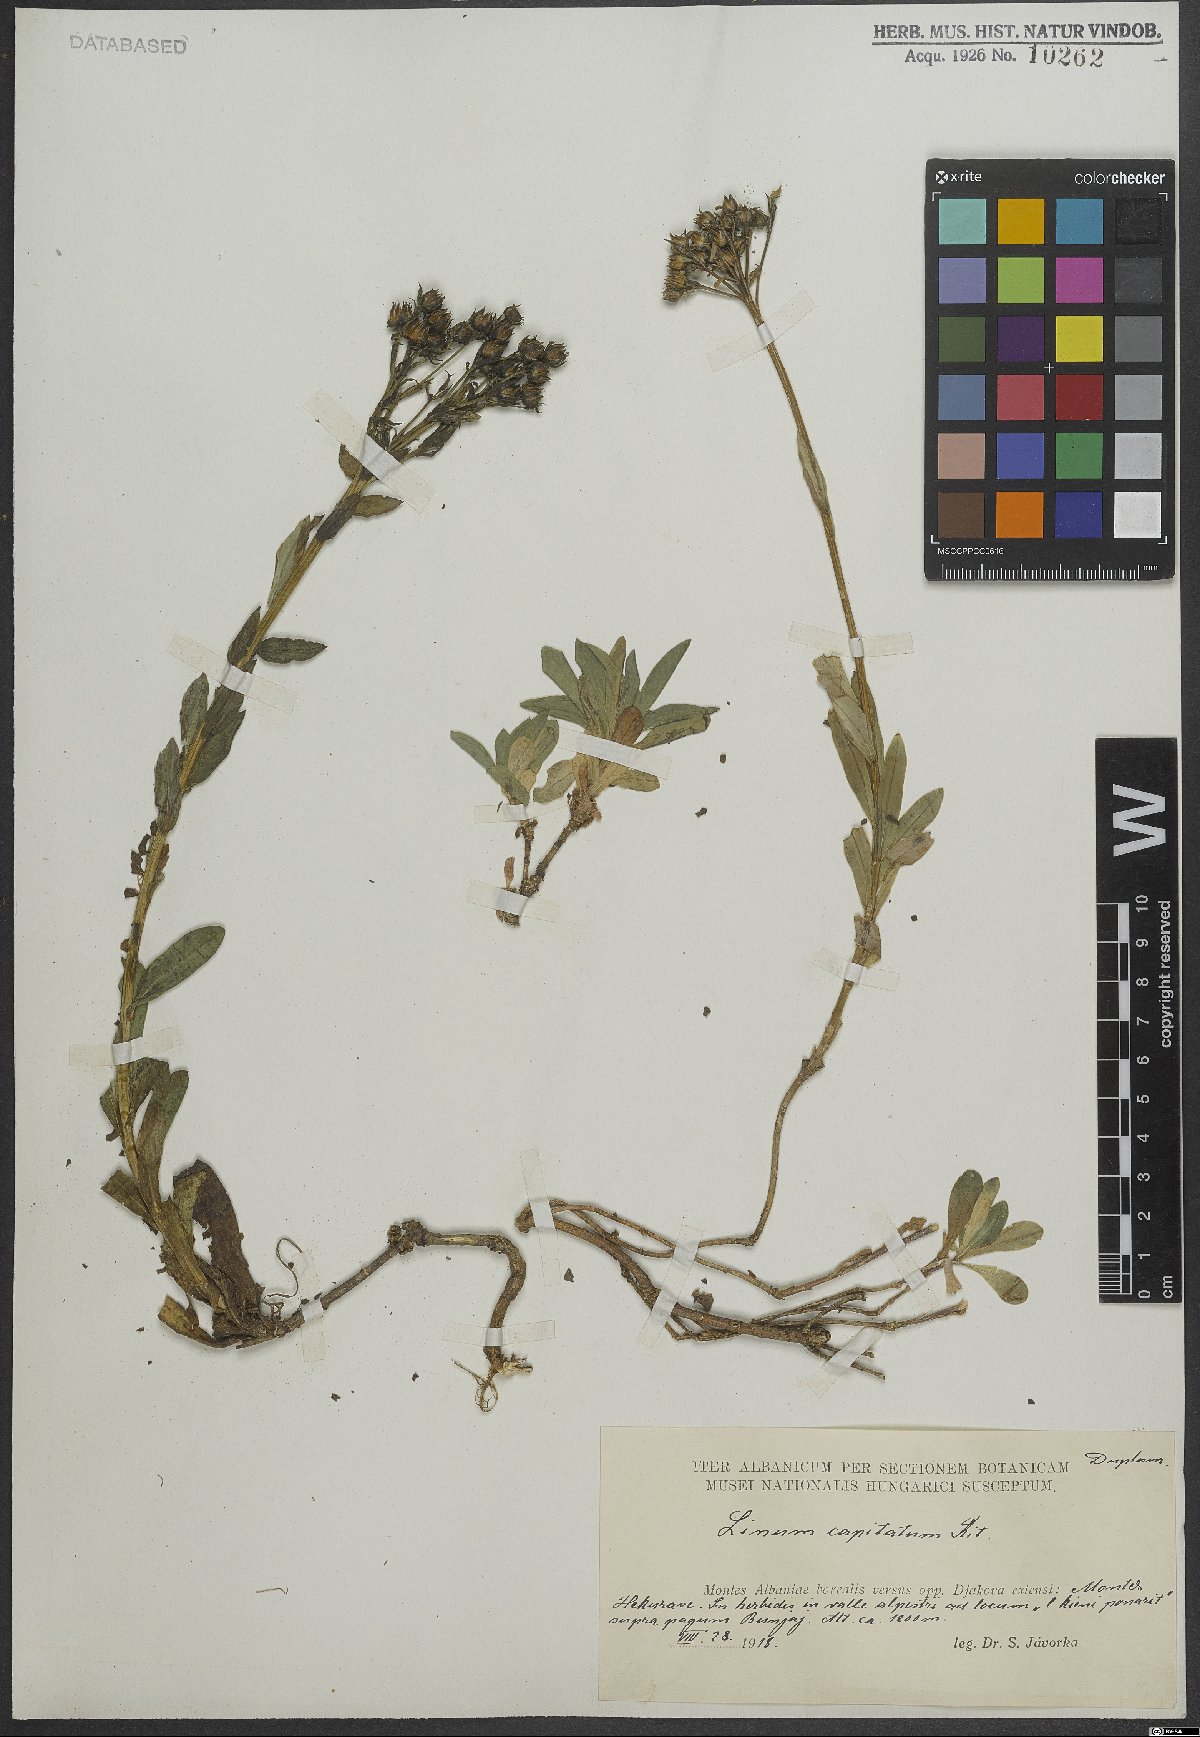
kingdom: Plantae
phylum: Tracheophyta
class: Magnoliopsida
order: Malpighiales
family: Linaceae
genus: Linum
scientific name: Linum capitatum
